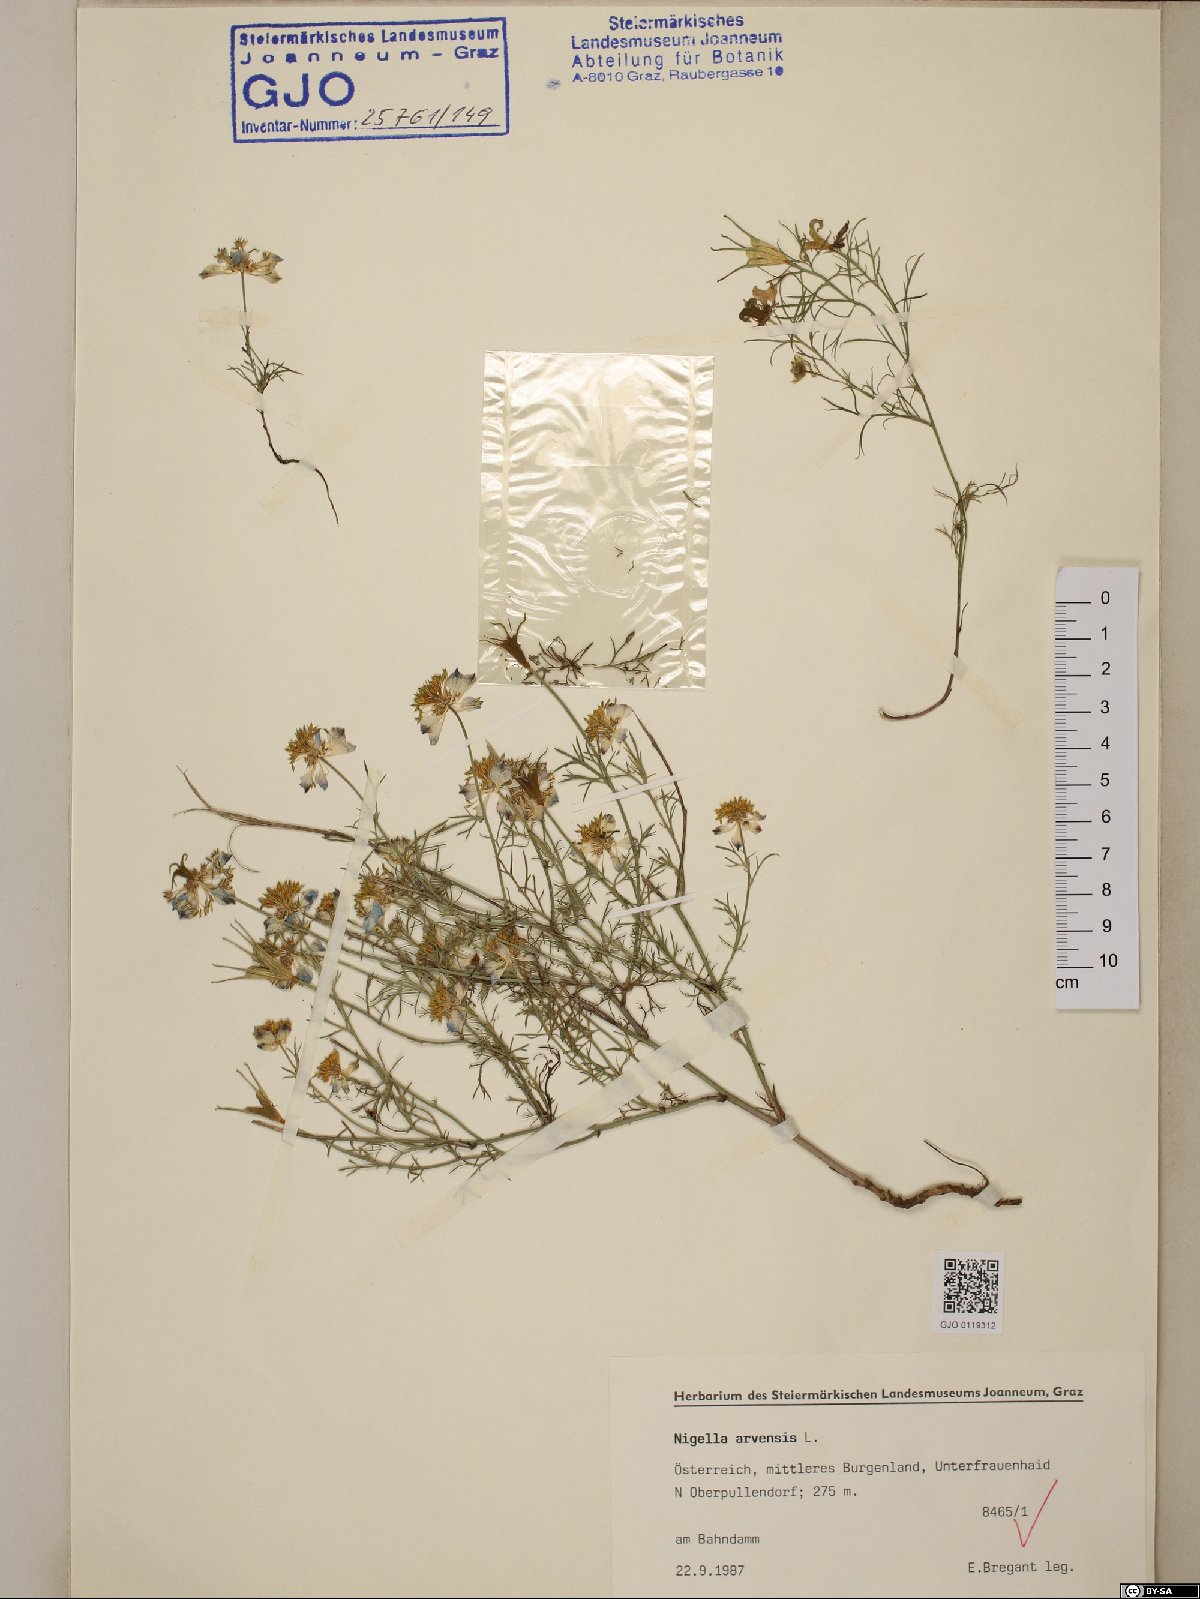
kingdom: Plantae
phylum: Tracheophyta
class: Magnoliopsida
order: Ranunculales
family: Ranunculaceae
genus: Nigella
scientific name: Nigella arvensis
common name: Wild fennel-flower
